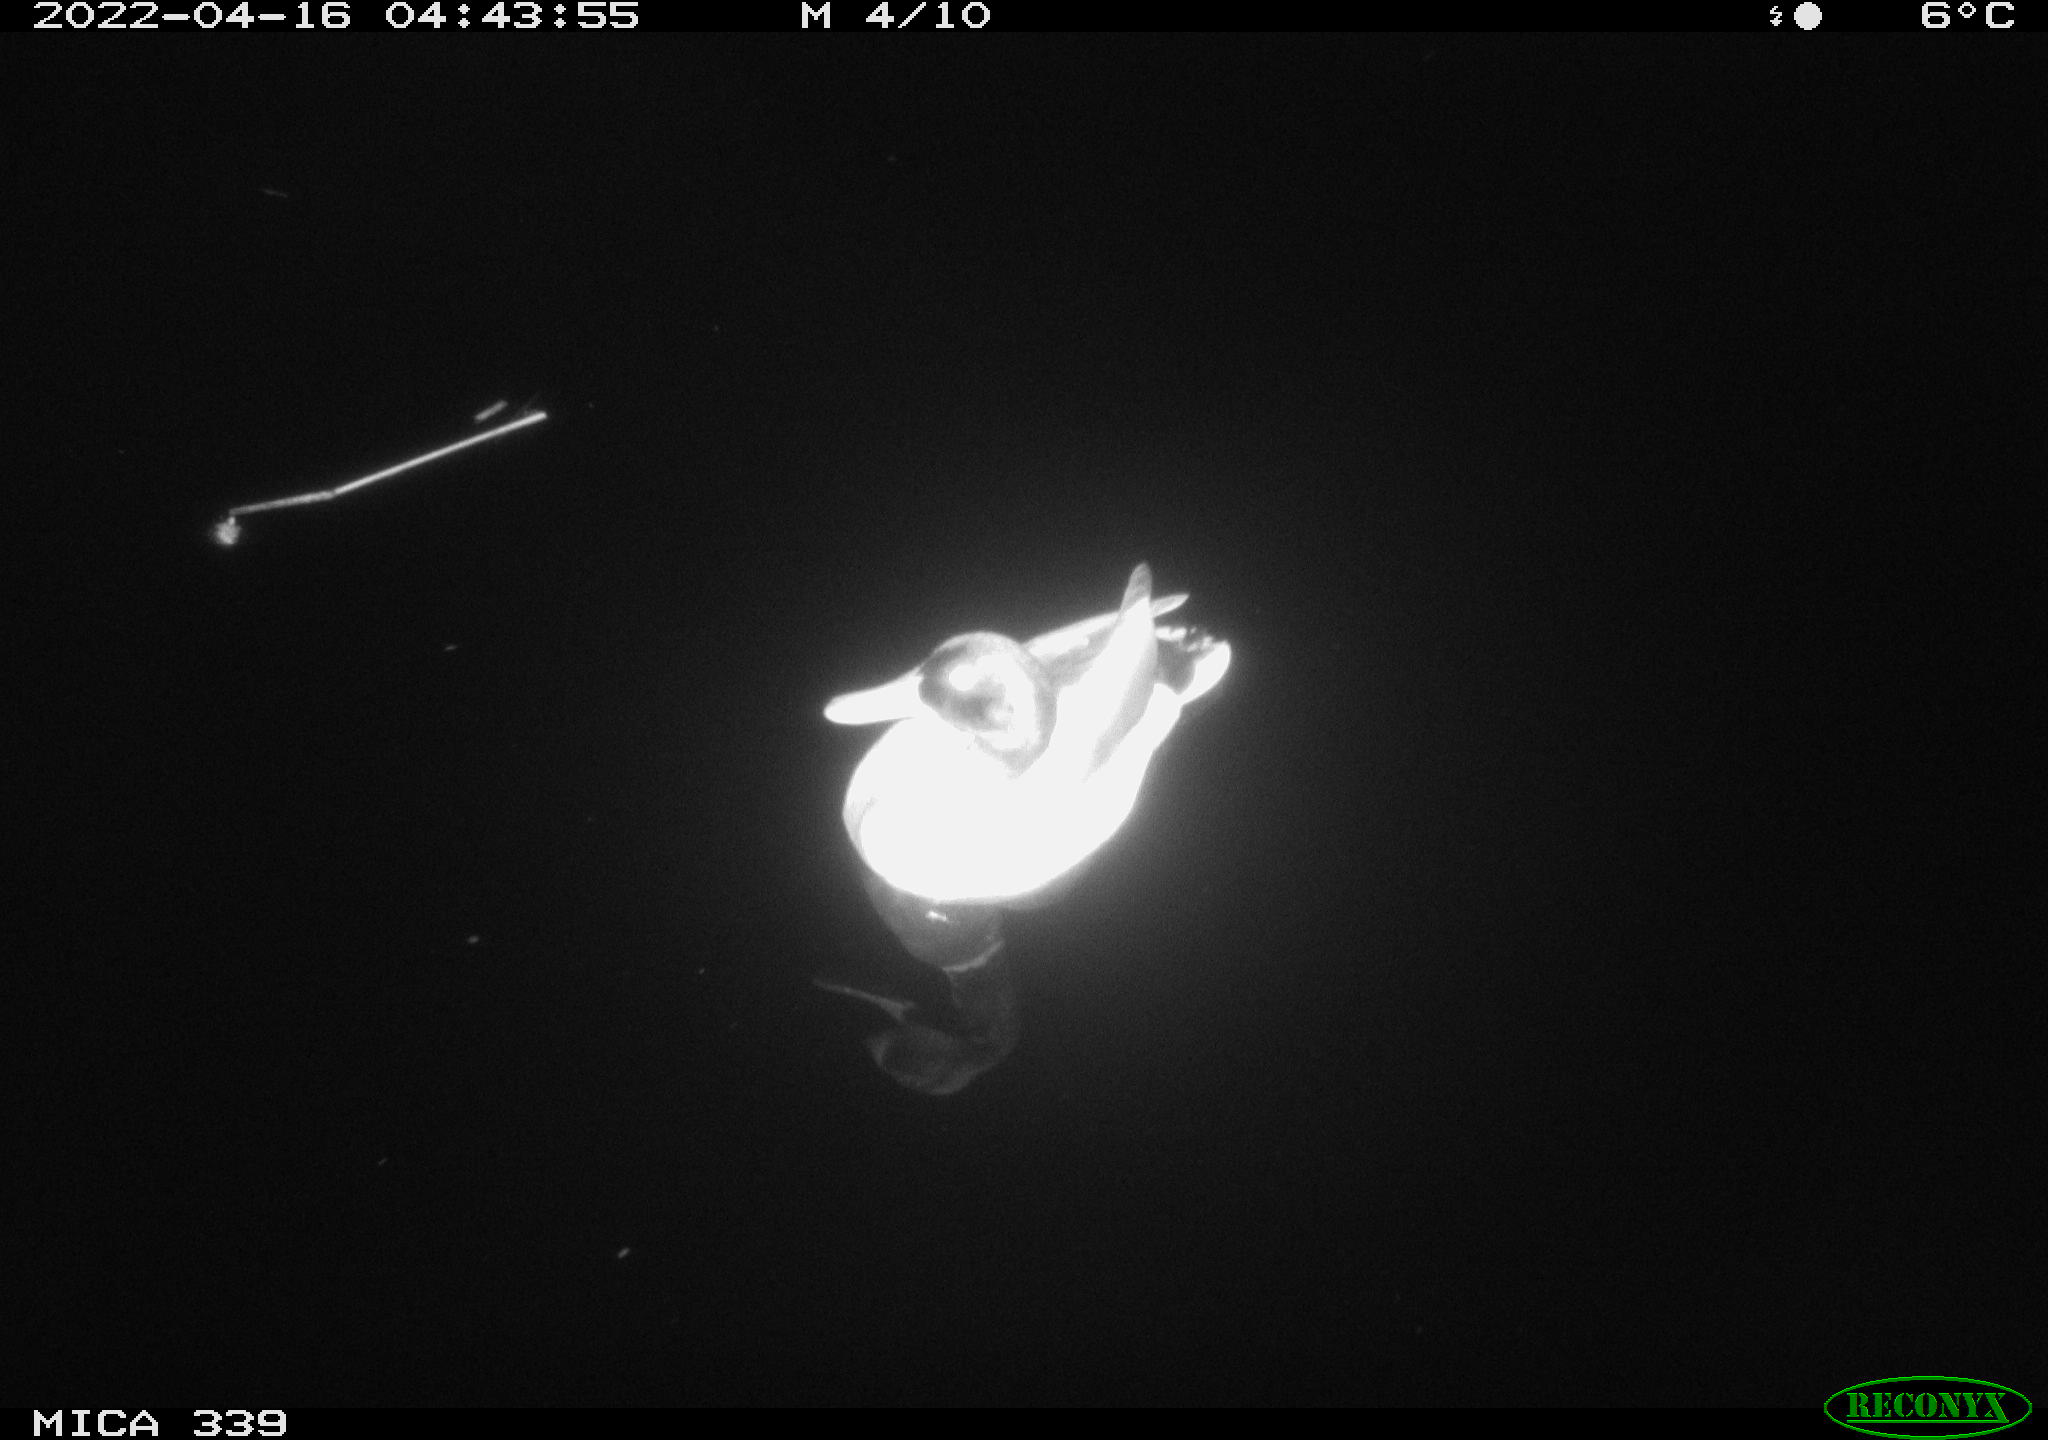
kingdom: Animalia
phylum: Chordata
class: Aves
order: Anseriformes
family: Anatidae
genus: Anas
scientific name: Anas platyrhynchos
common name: Mallard
